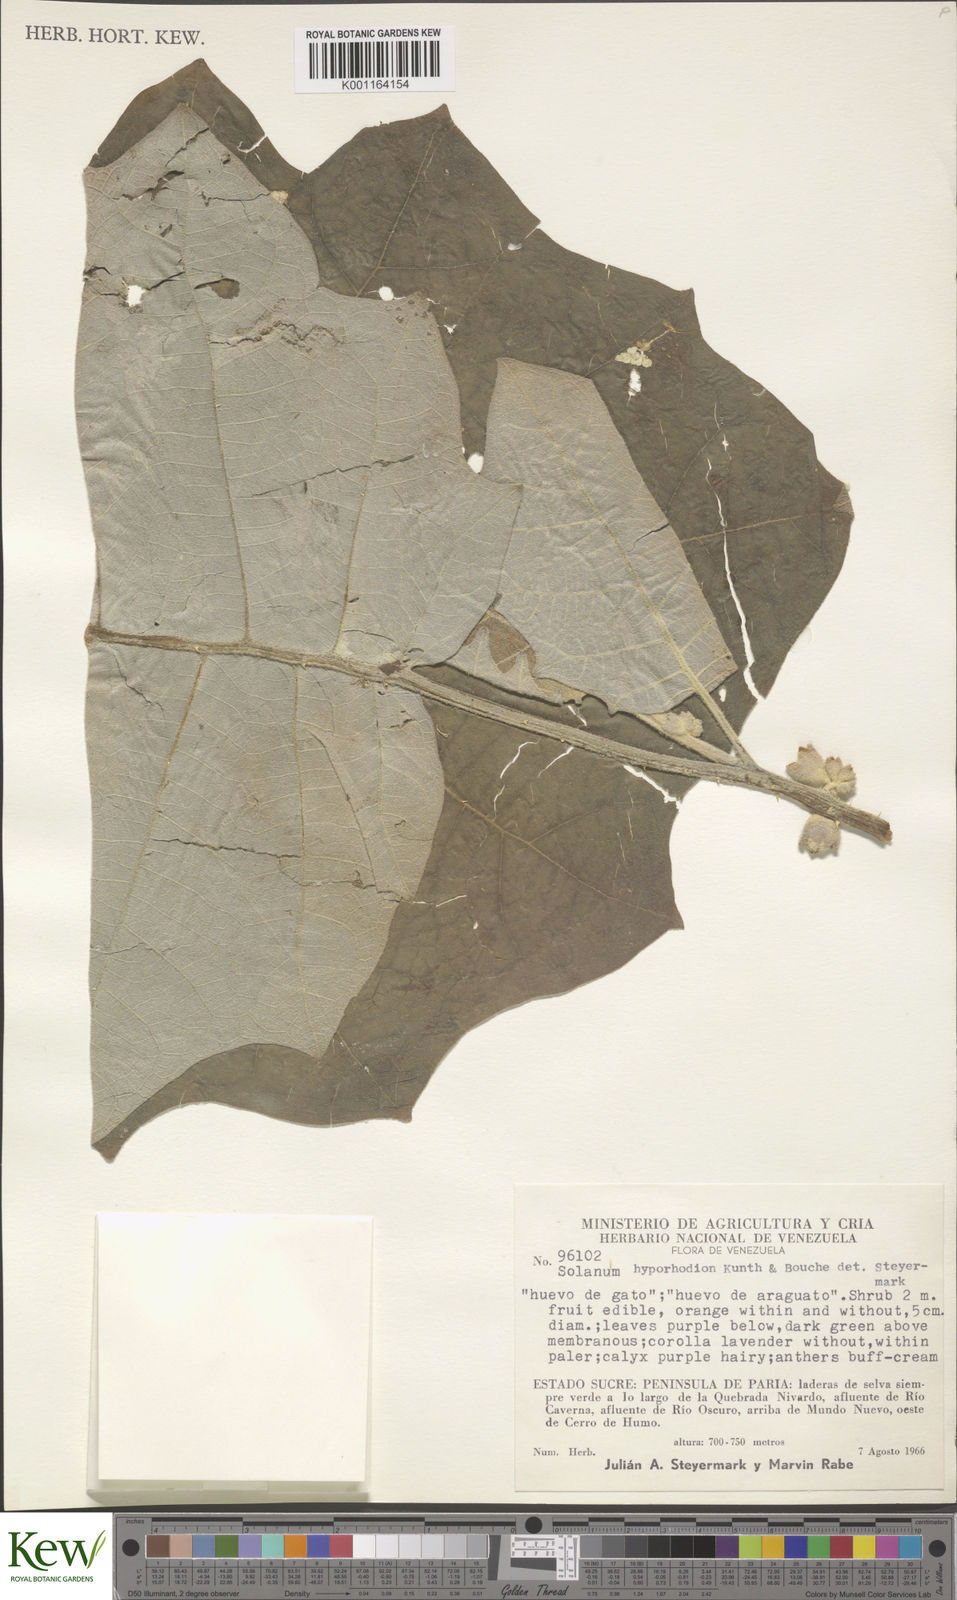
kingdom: Plantae
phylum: Tracheophyta
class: Magnoliopsida
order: Solanales
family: Solanaceae
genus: Solanum
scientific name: Solanum hyporhodium
